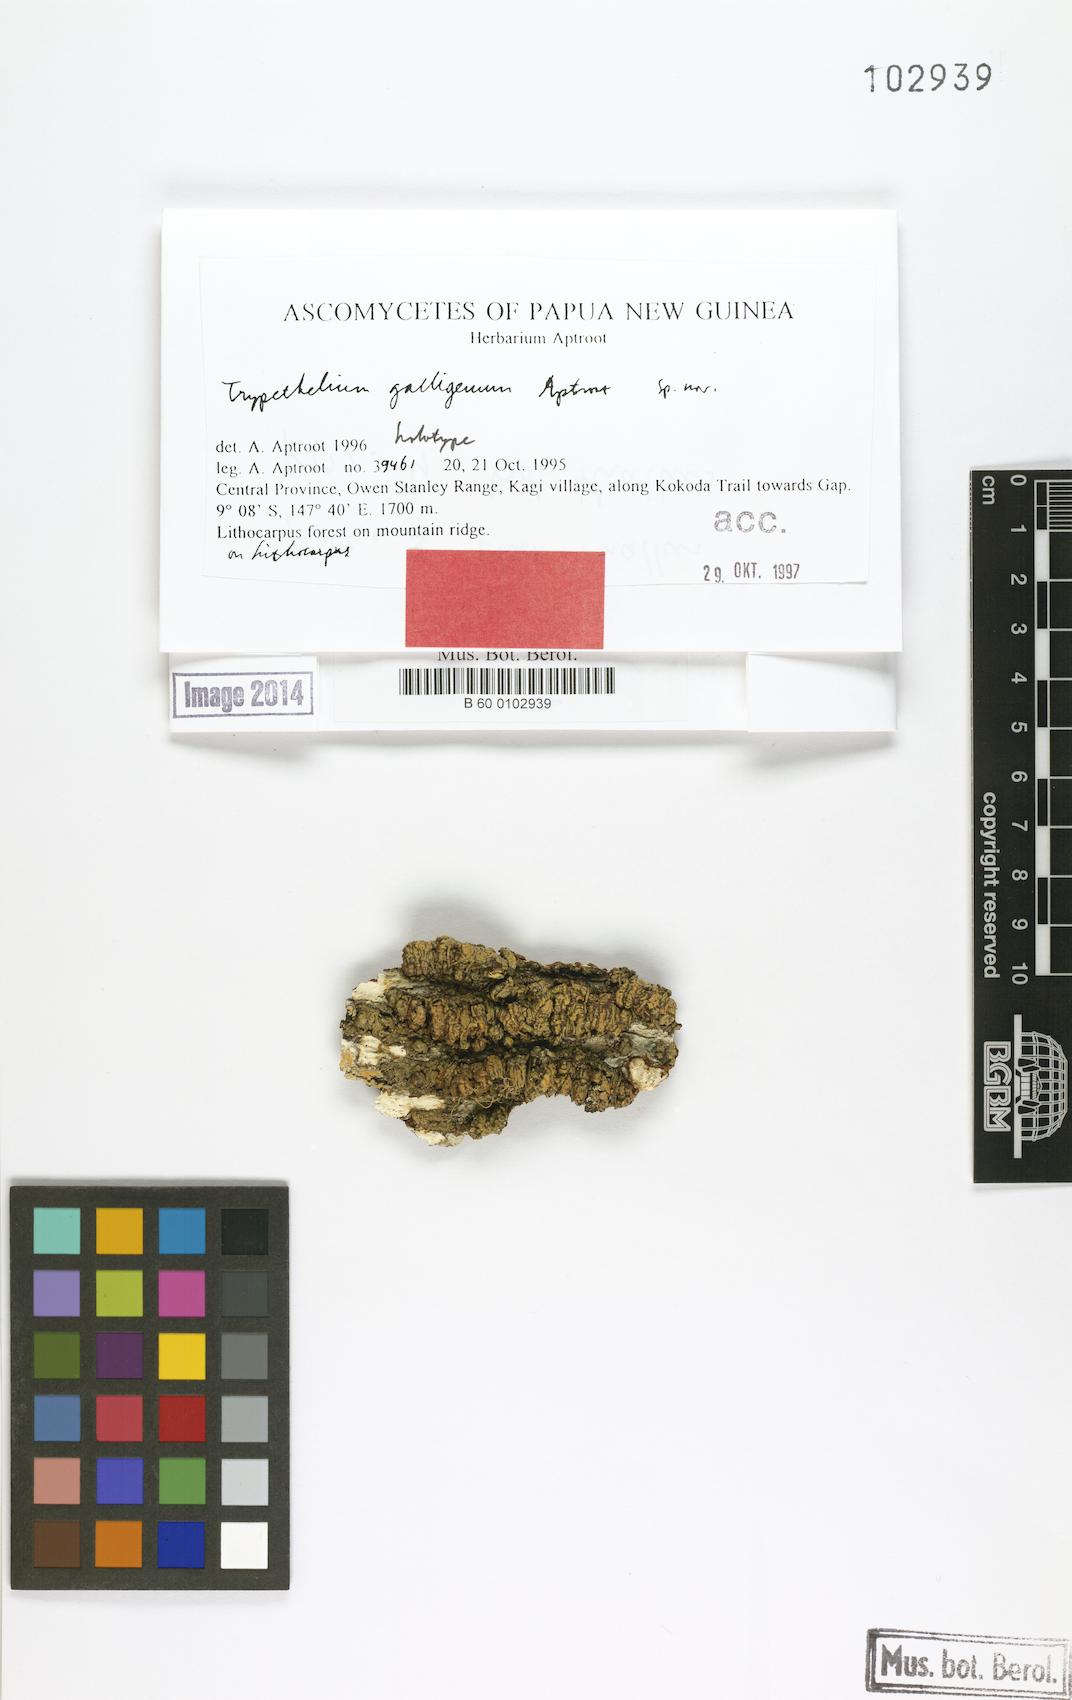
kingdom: Fungi
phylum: Ascomycota
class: Dothideomycetes
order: Trypetheliales
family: Trypetheliaceae
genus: Astrothelium
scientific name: Astrothelium galligenum
